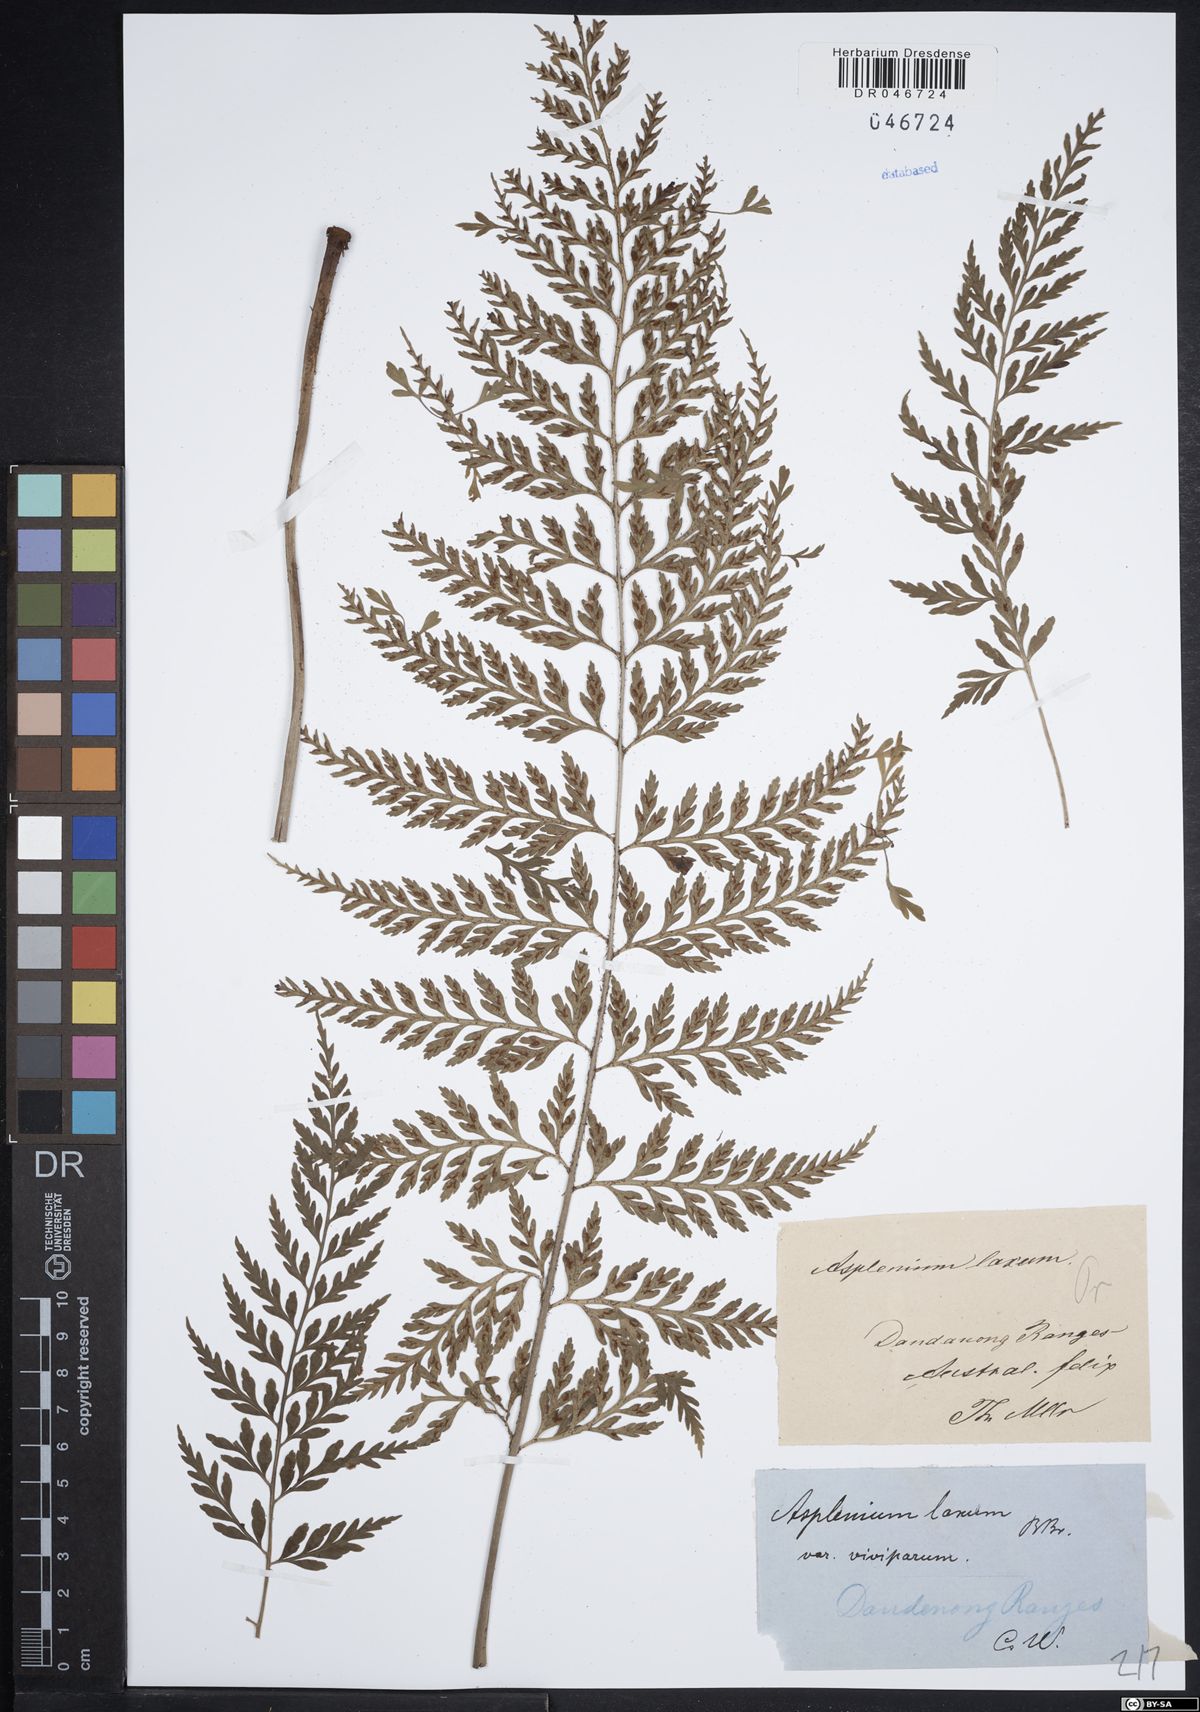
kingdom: Plantae
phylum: Tracheophyta
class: Polypodiopsida
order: Polypodiales
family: Athyriaceae
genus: Athyrium
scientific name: Athyrium newtonii
